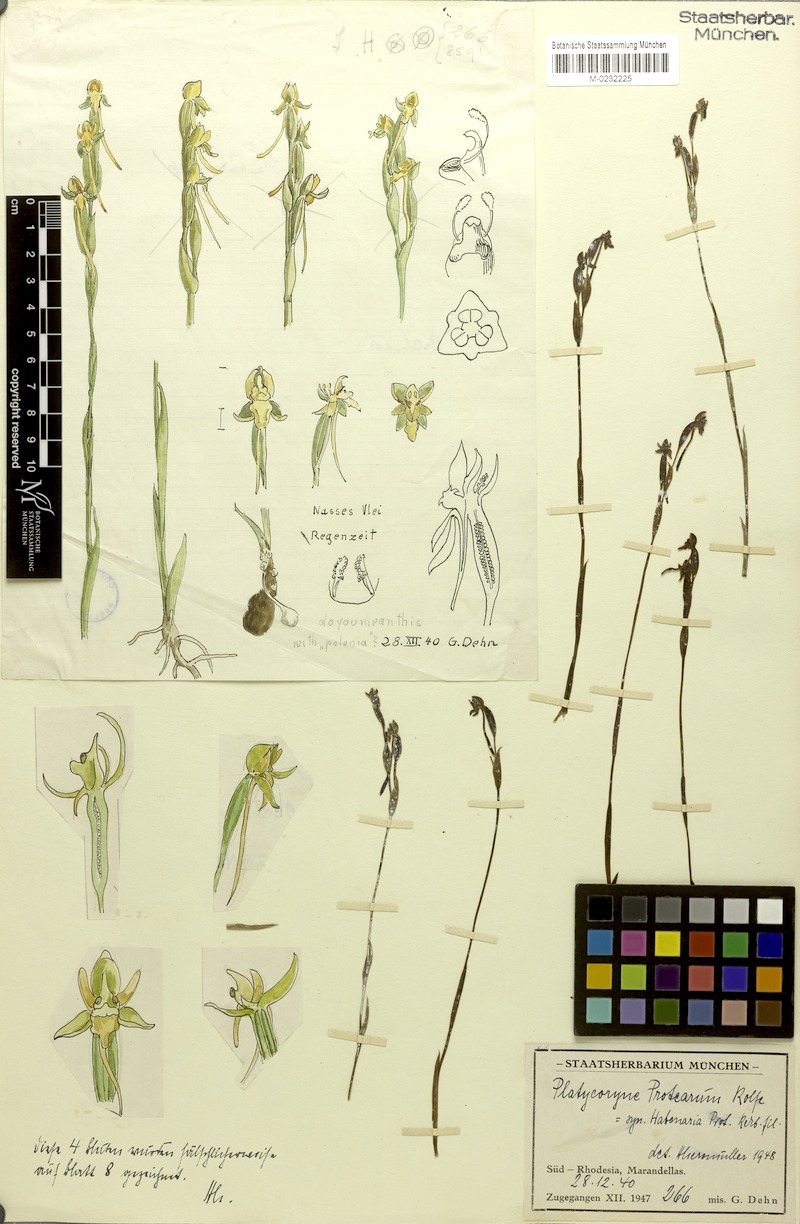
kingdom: Plantae
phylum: Tracheophyta
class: Liliopsida
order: Asparagales
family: Orchidaceae
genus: Platycoryne
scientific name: Platycoryne protearum
